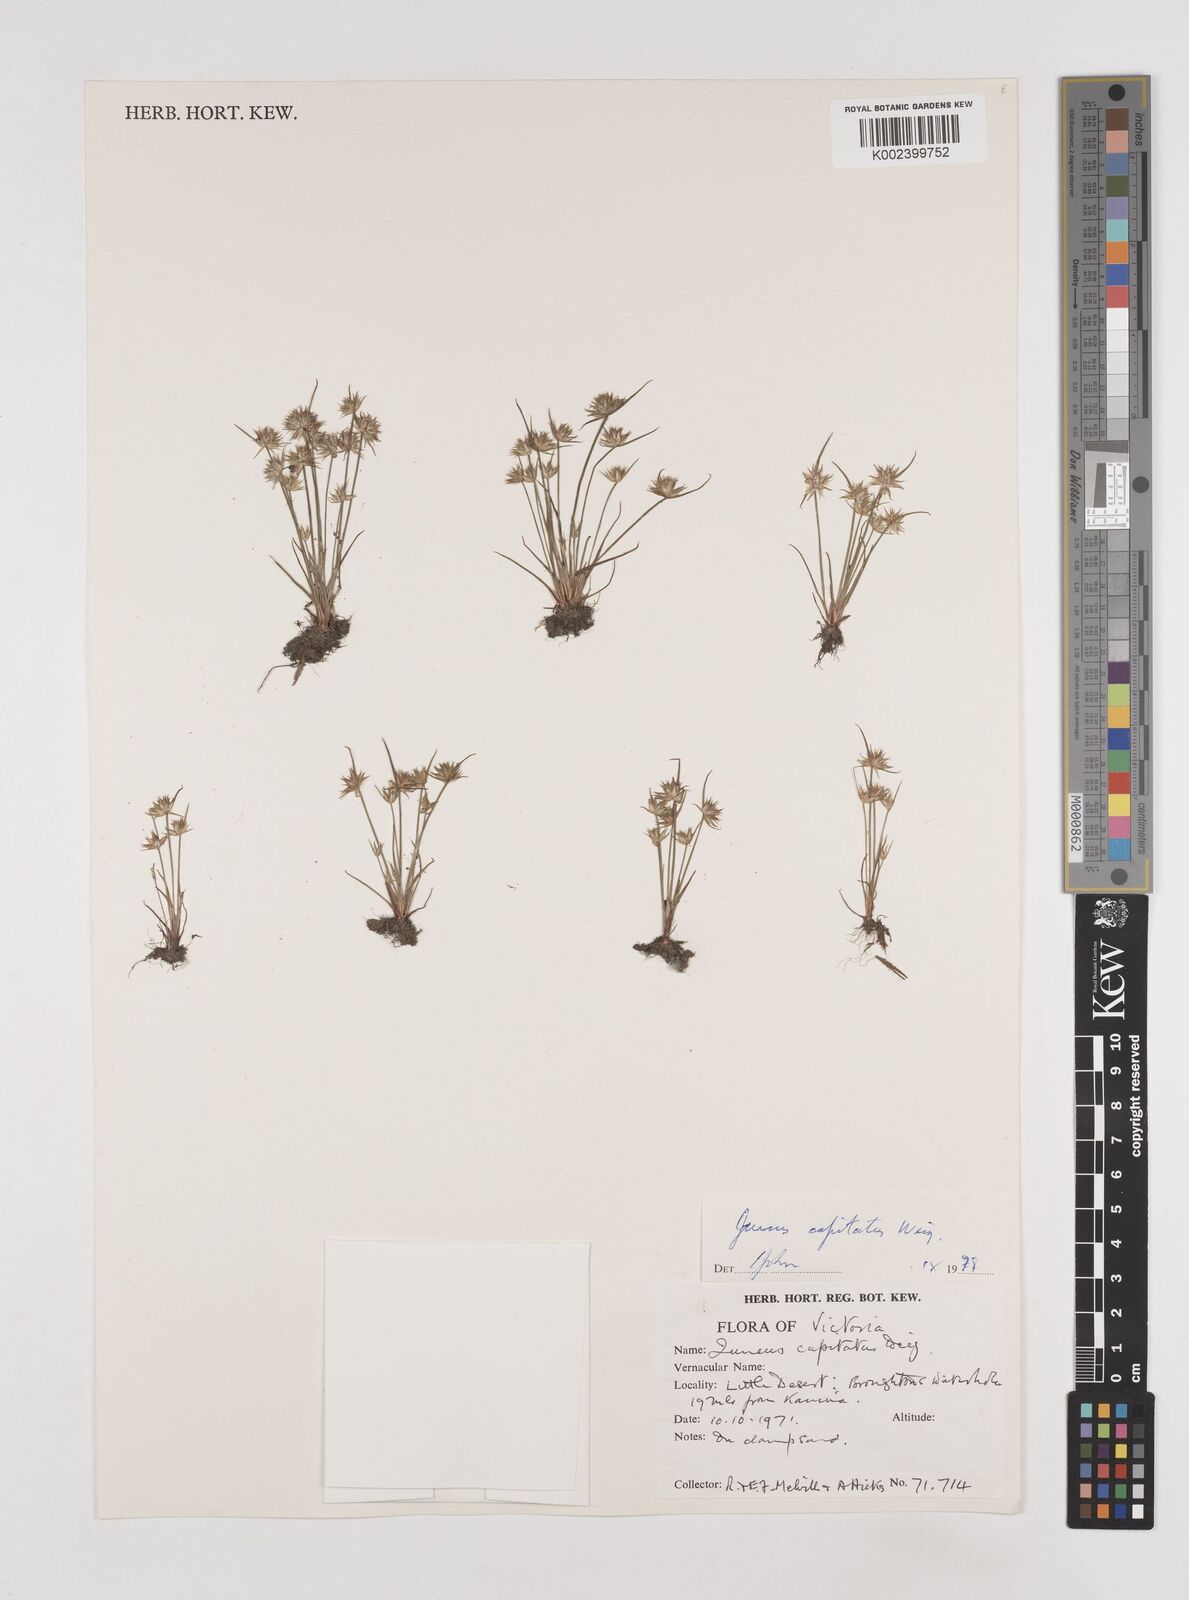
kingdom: Plantae
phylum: Tracheophyta
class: Liliopsida
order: Poales
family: Juncaceae
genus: Juncus
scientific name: Juncus capitatus
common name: Dwarf rush
